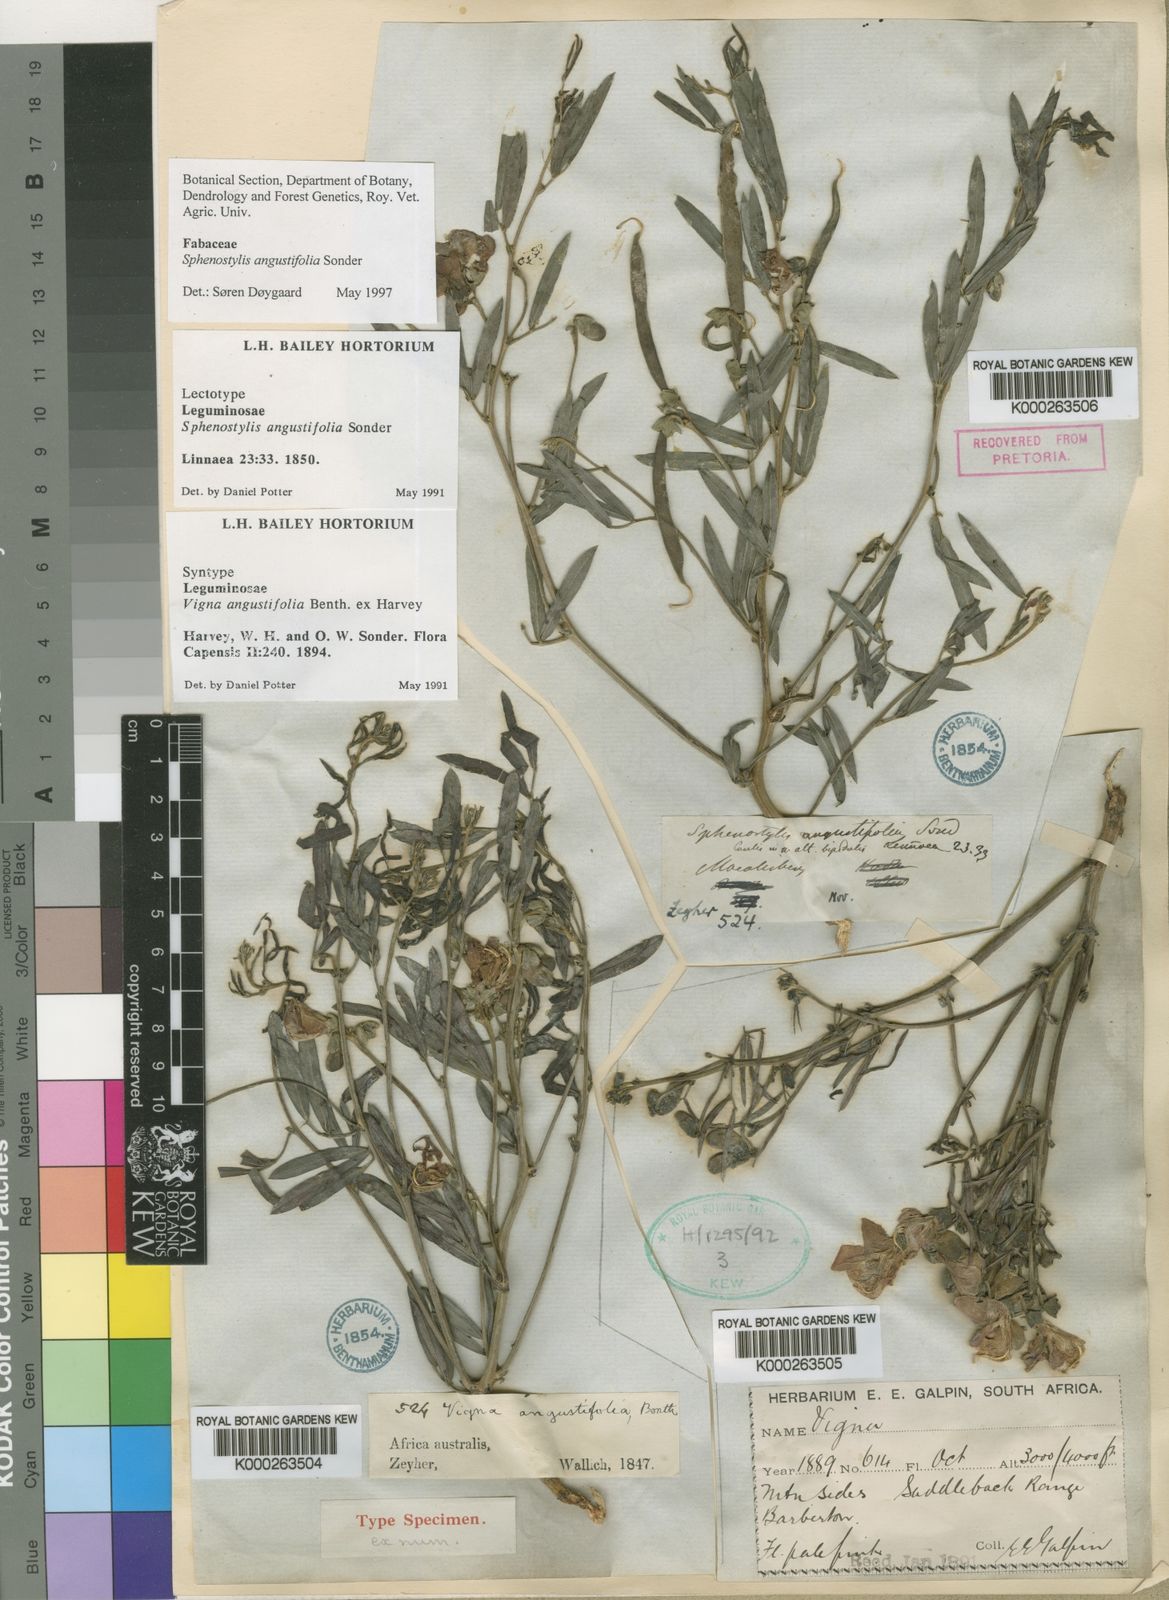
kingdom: Plantae
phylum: Tracheophyta
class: Magnoliopsida
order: Fabales
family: Fabaceae
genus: Vigna
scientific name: Vigna
